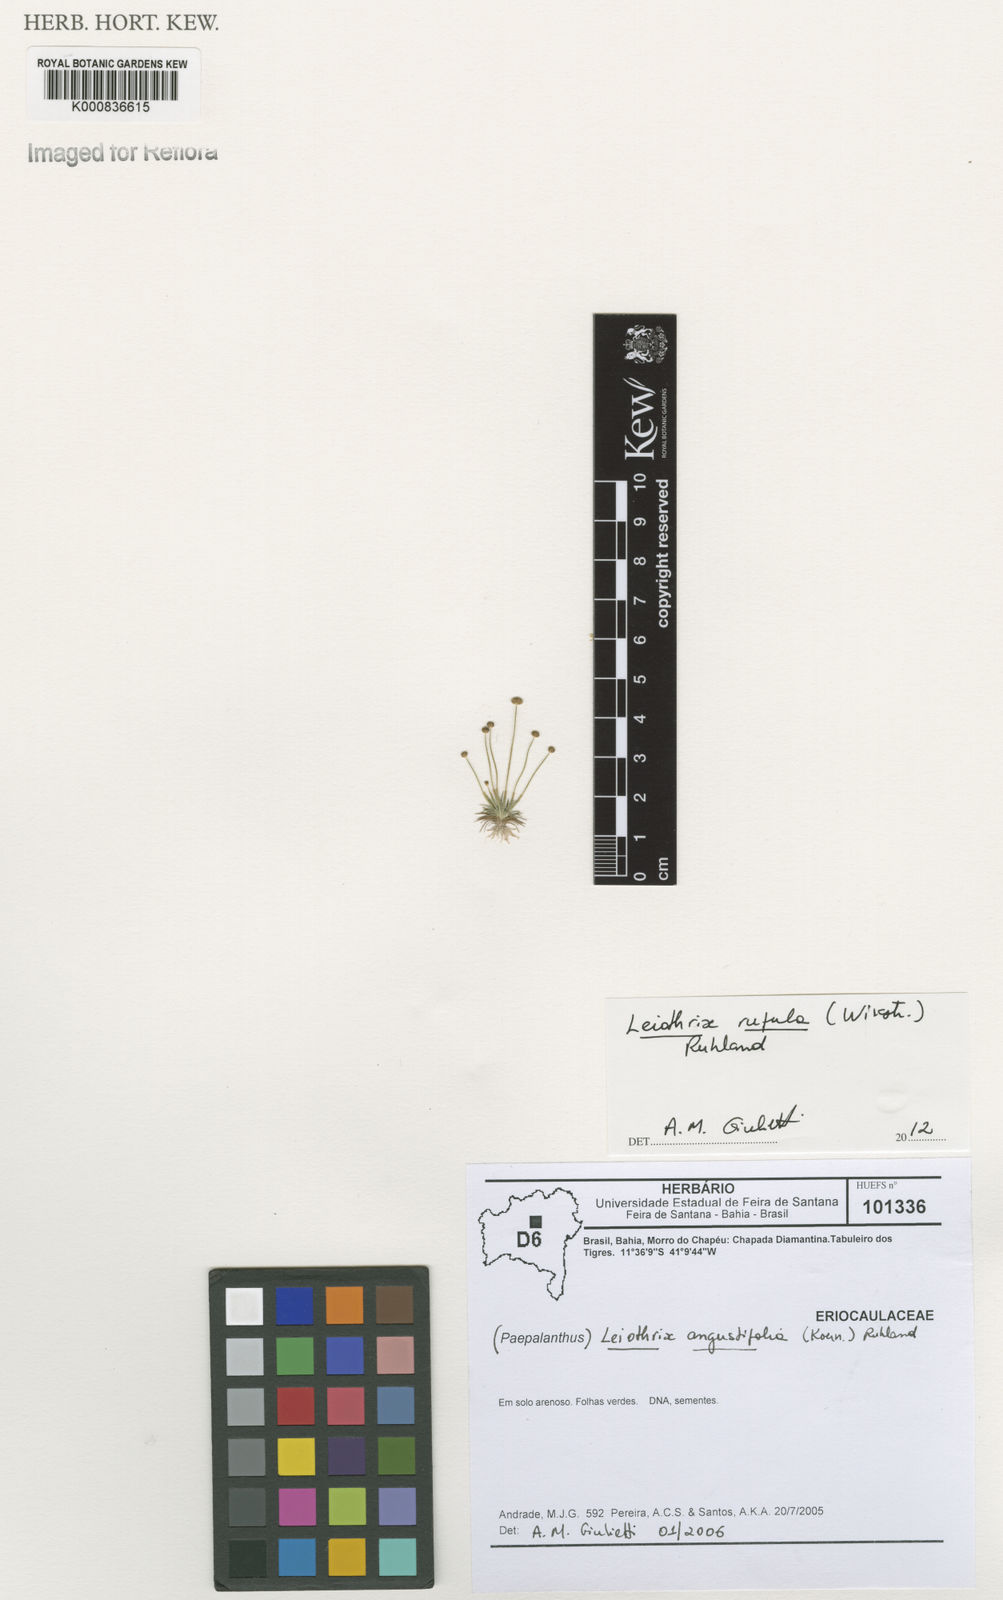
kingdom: Plantae
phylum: Tracheophyta
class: Liliopsida
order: Poales
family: Eriocaulaceae
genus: Leiothrix
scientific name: Leiothrix rufula
